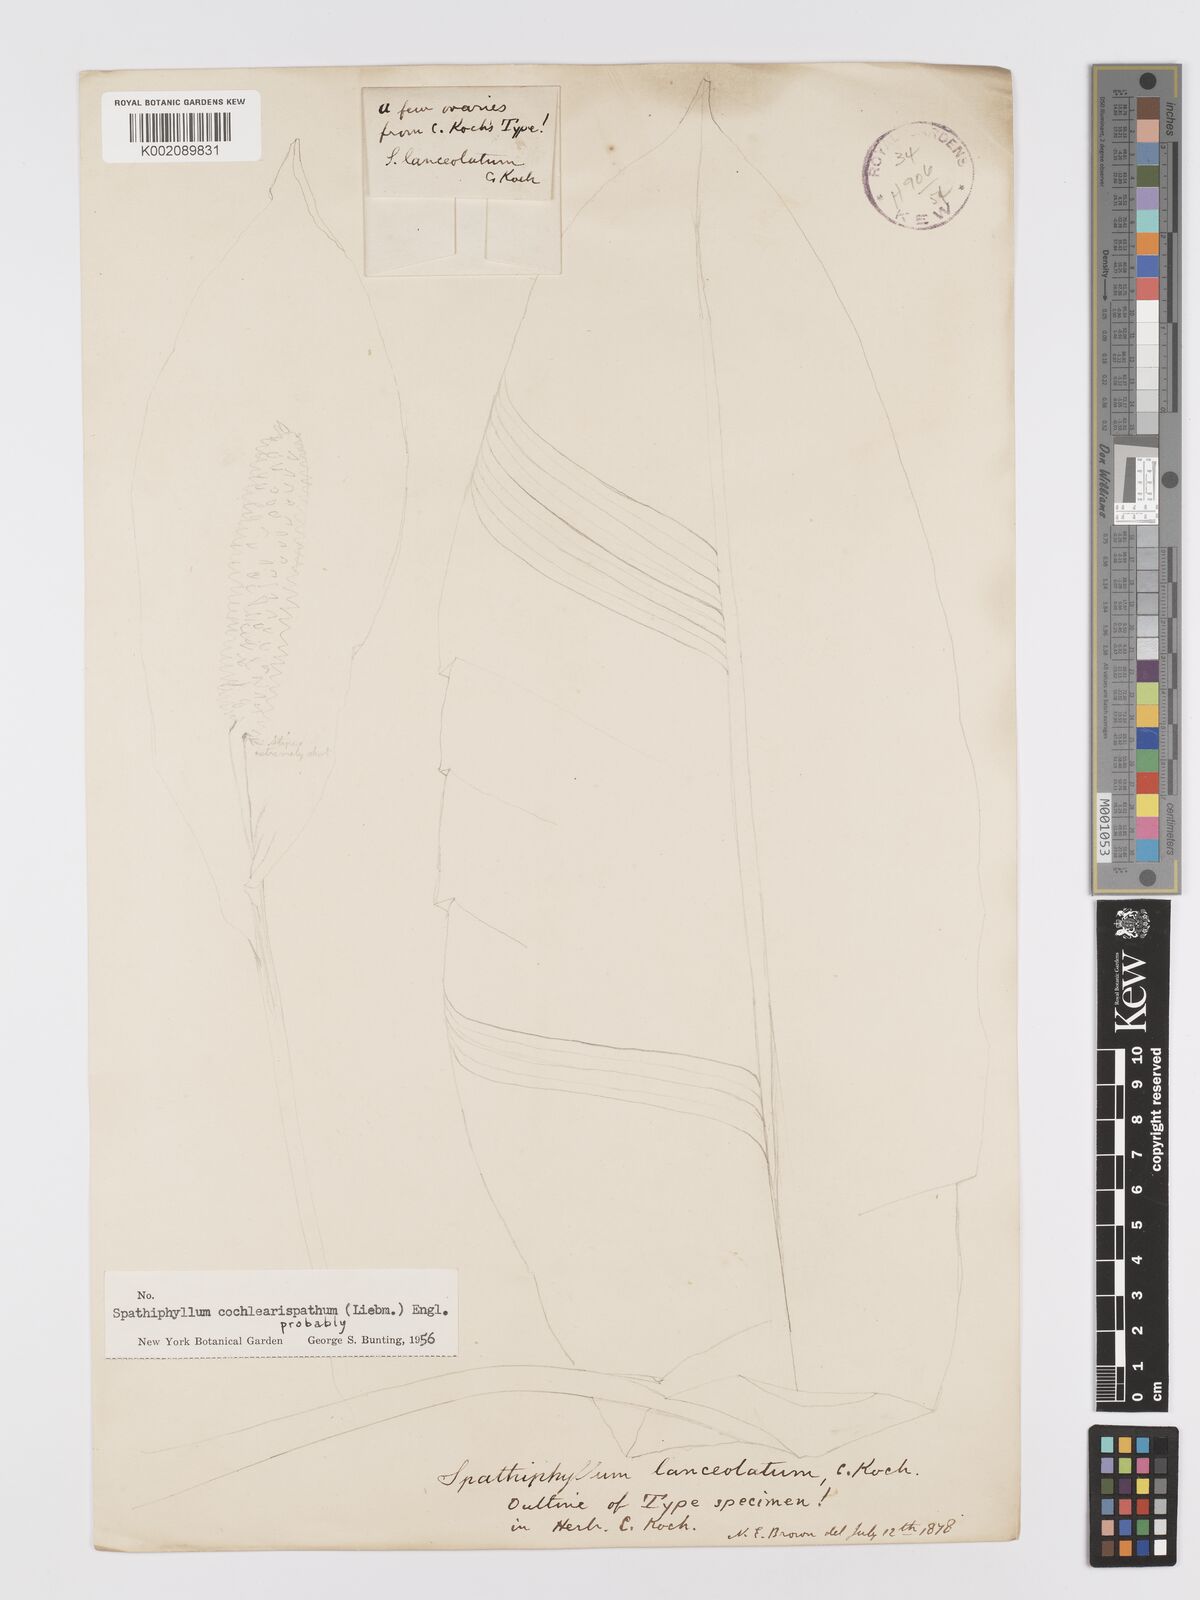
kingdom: Plantae
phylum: Tracheophyta
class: Liliopsida
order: Alismatales
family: Araceae
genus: Spathiphyllum
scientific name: Spathiphyllum cochlearispathum
